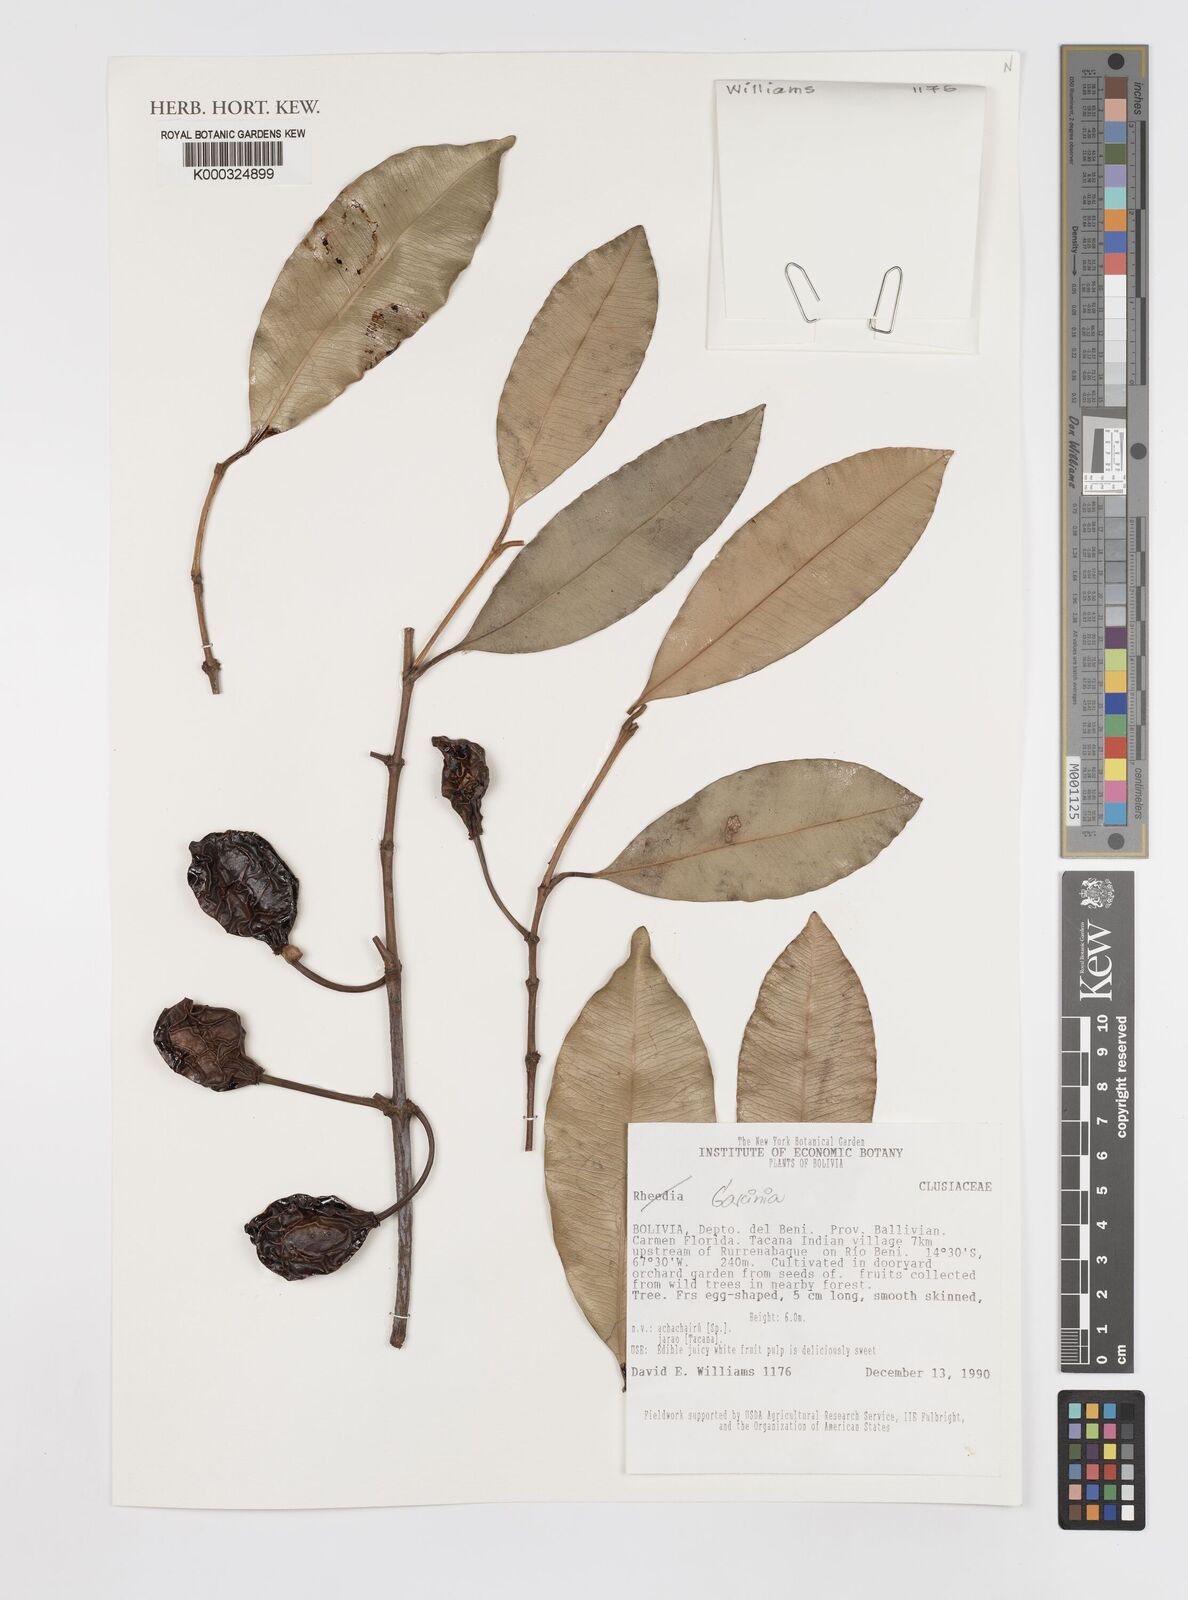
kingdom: Plantae
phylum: Tracheophyta
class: Magnoliopsida
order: Malpighiales
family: Clusiaceae
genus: Garcinia
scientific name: Garcinia
